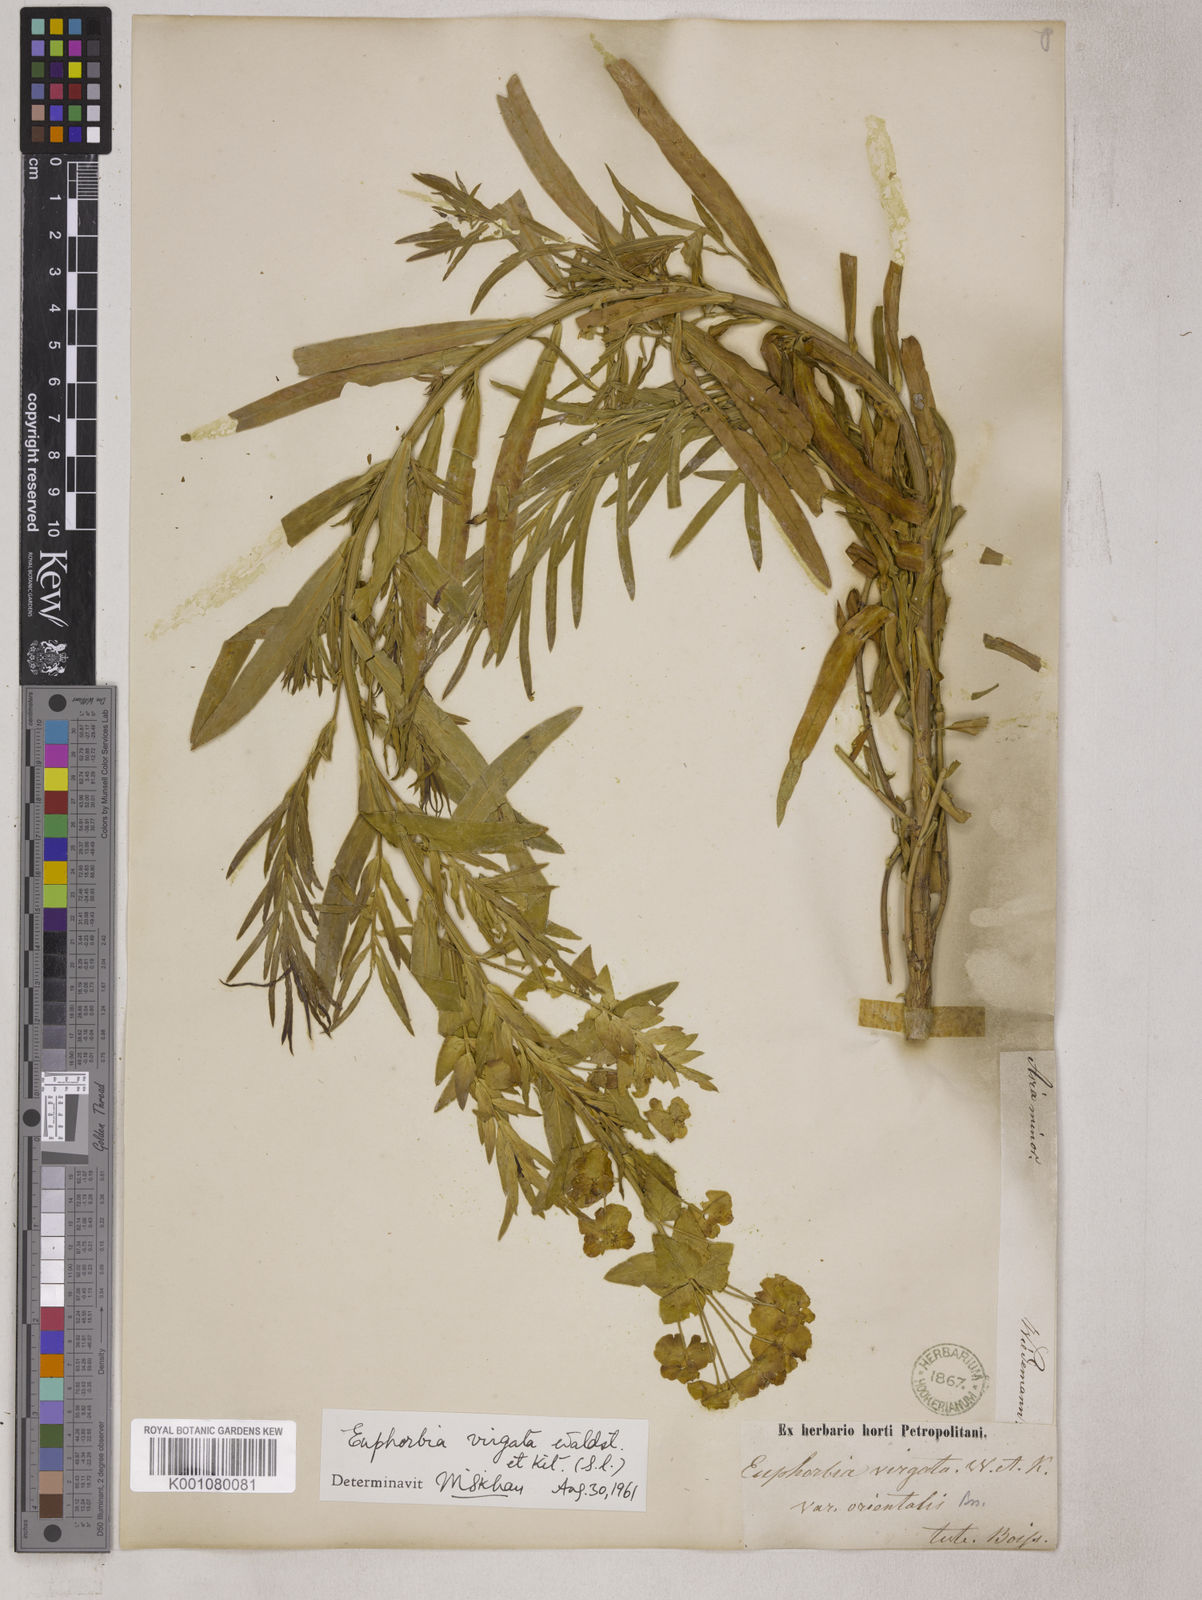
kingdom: Plantae
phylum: Tracheophyta
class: Magnoliopsida
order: Malpighiales
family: Euphorbiaceae
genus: Euphorbia
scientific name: Euphorbia virgata
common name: Leafy spurge
